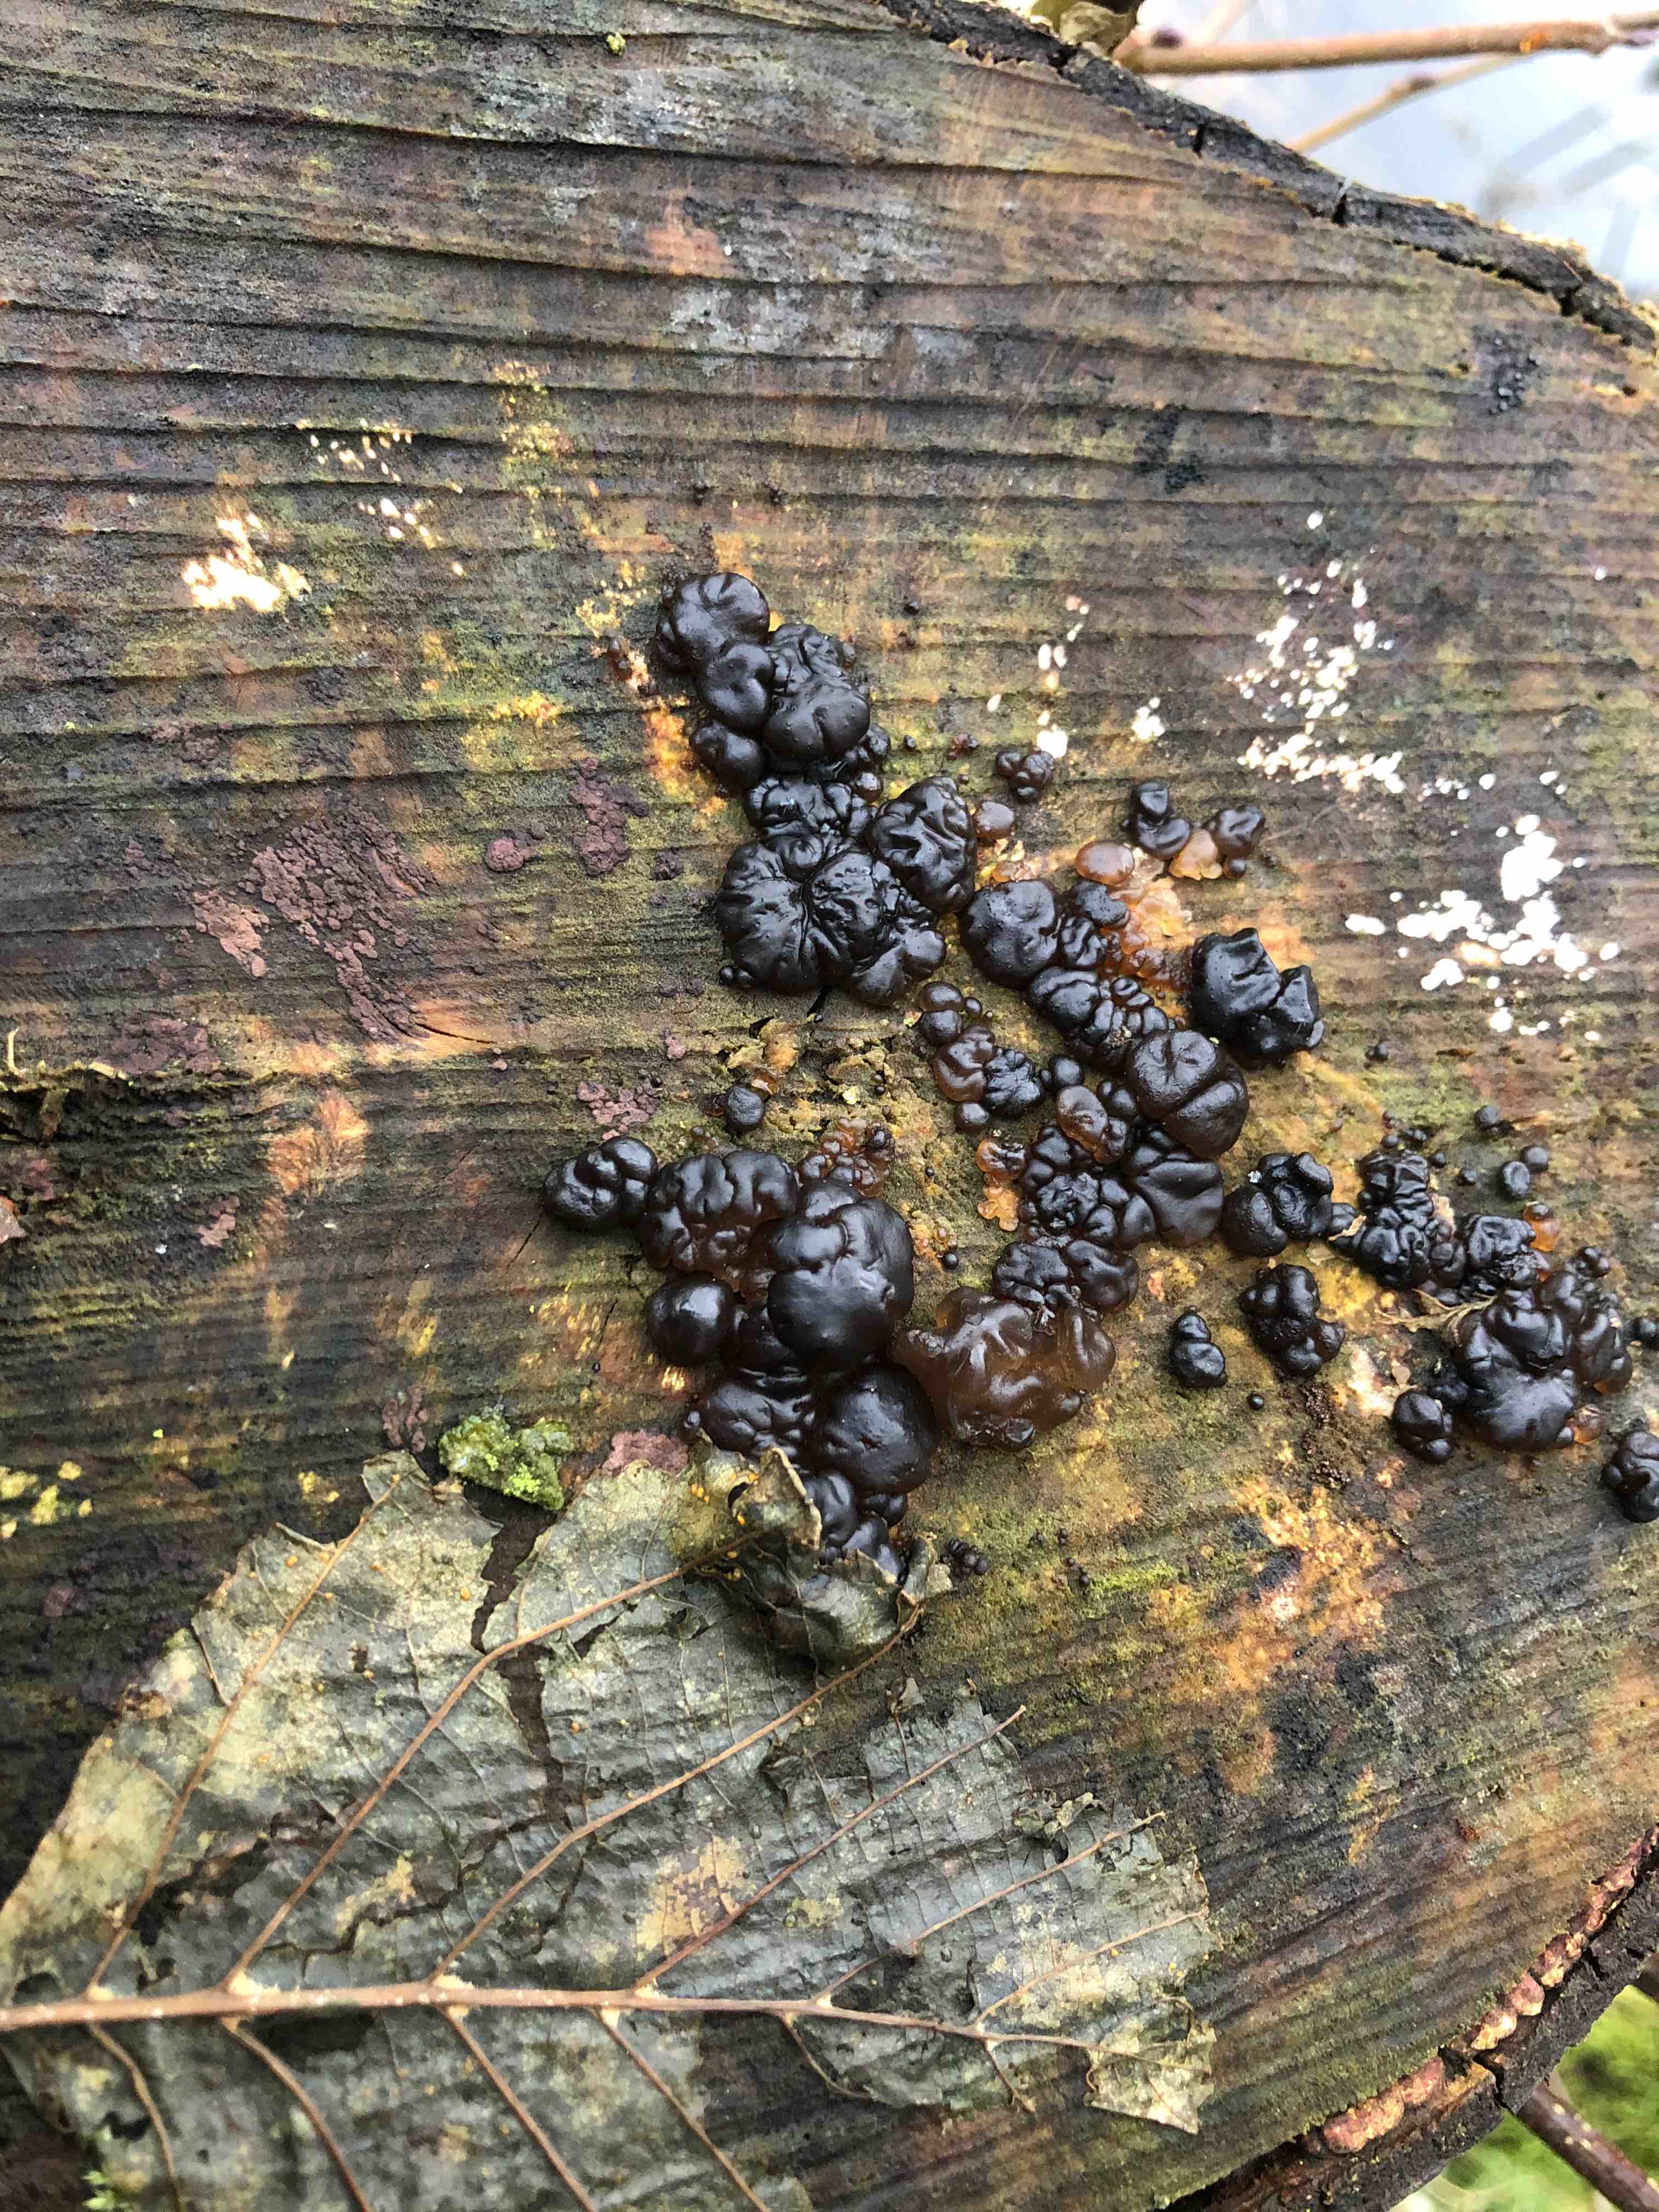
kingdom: Fungi
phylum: Basidiomycota
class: Agaricomycetes
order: Auriculariales
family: Auriculariaceae
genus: Exidia
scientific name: Exidia nigricans
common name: almindelig bævretop
